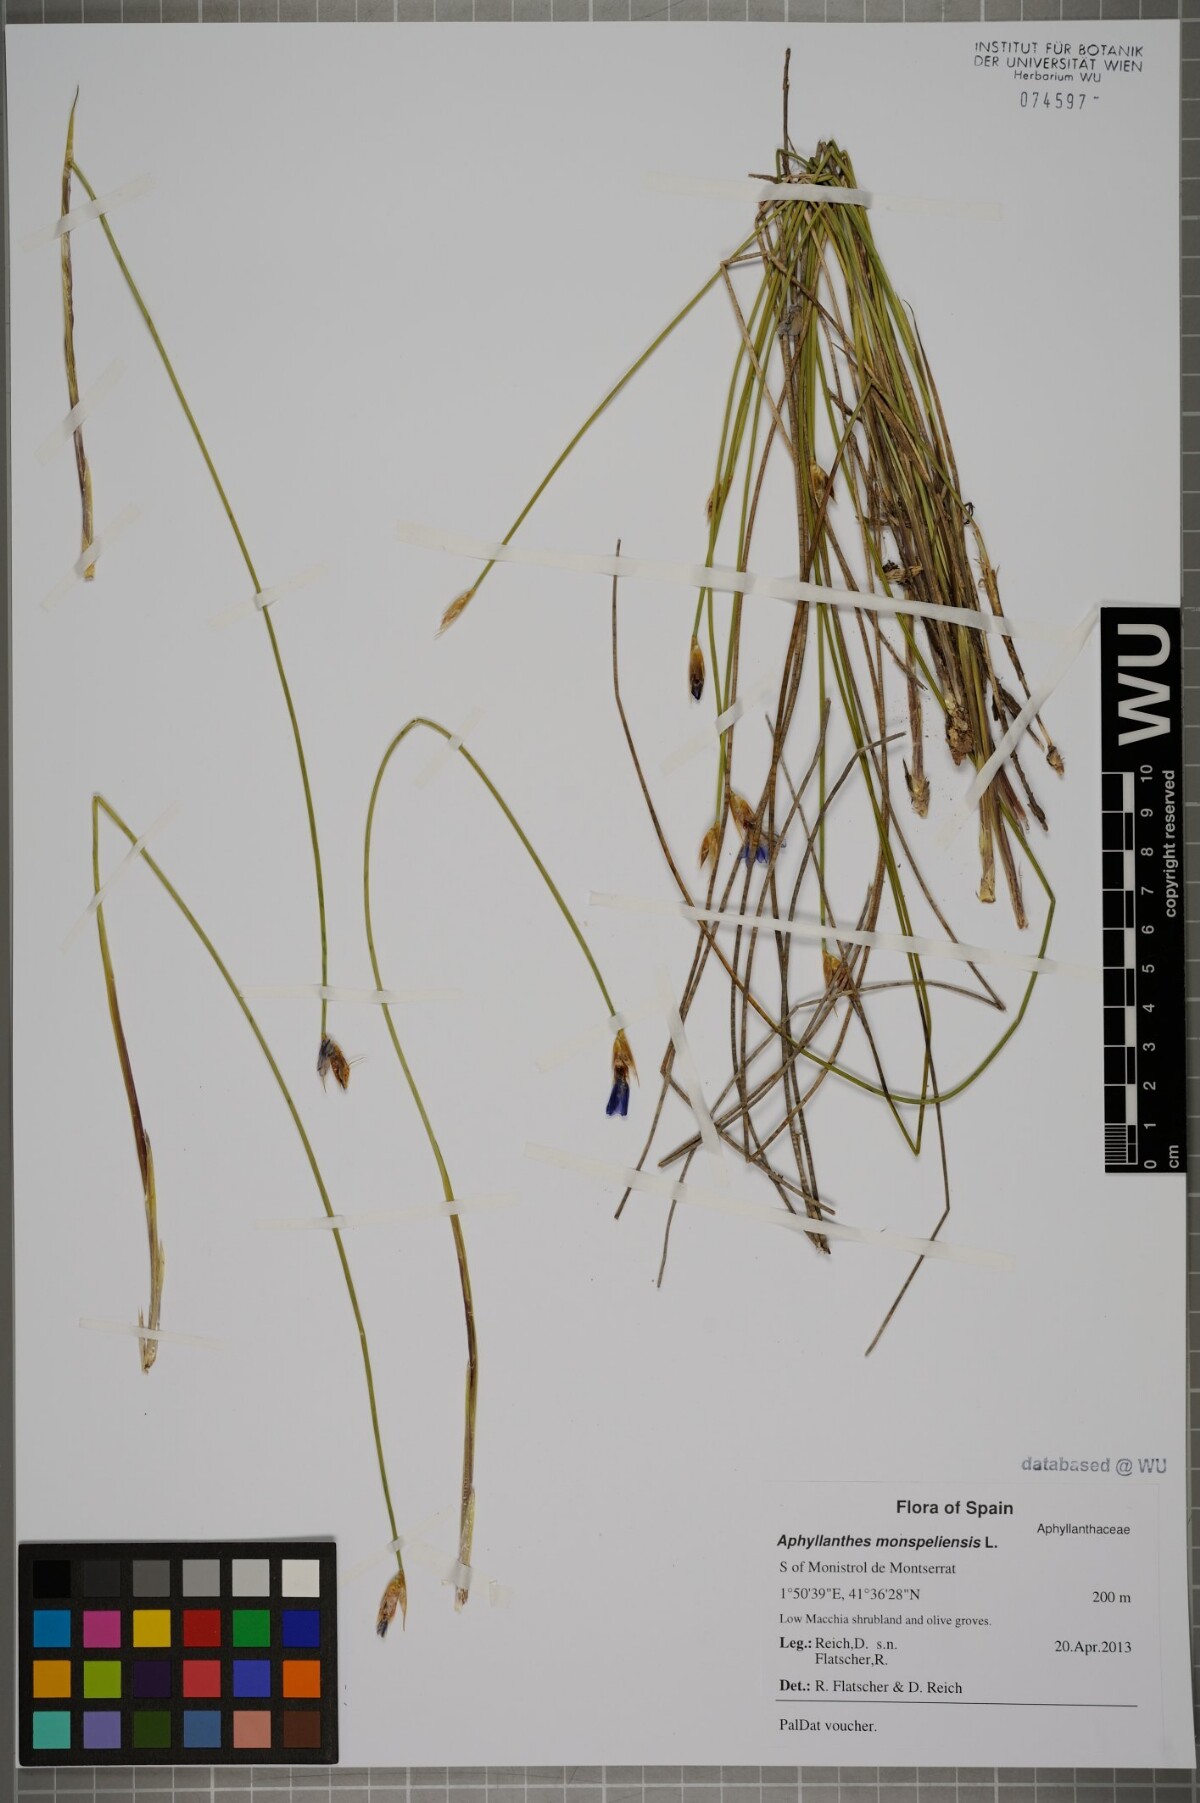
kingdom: Plantae
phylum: Tracheophyta
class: Liliopsida
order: Asparagales
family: Asparagaceae
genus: Aphyllanthes
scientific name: Aphyllanthes monspeliensis
